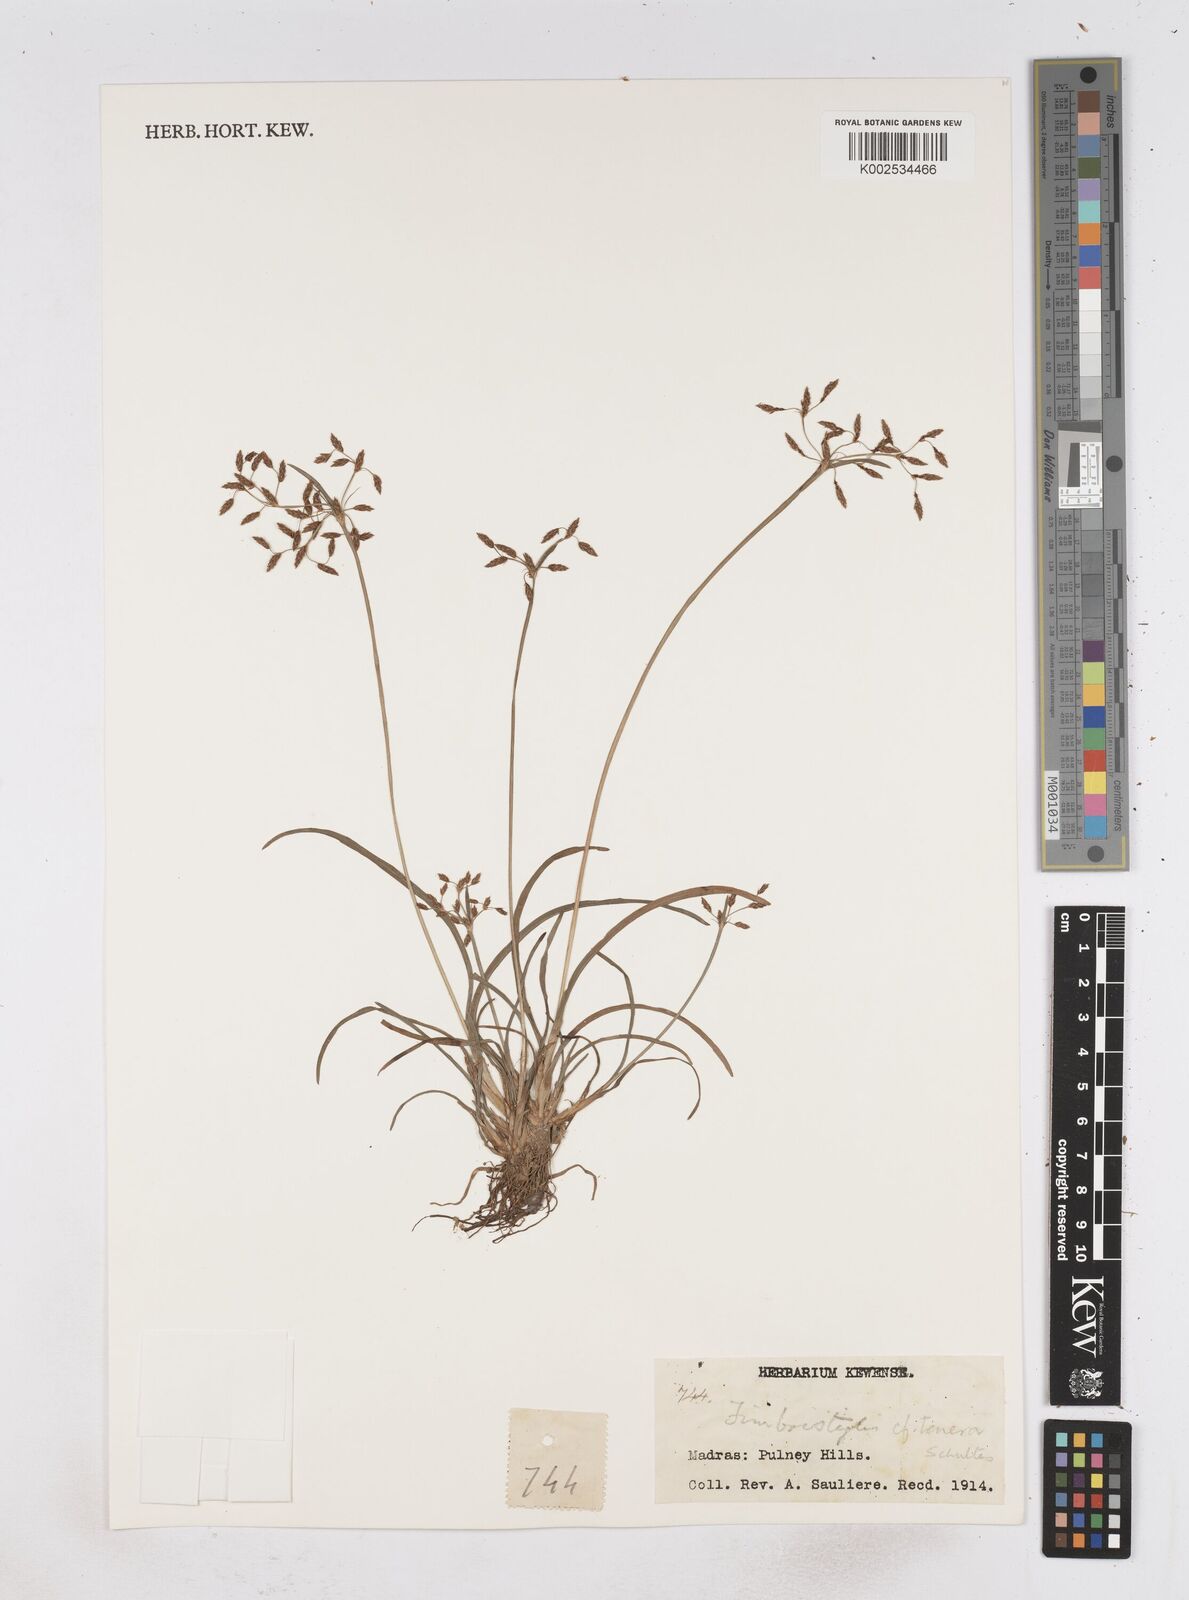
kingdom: Plantae
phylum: Tracheophyta
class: Liliopsida
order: Poales
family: Cyperaceae
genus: Fimbristylis
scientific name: Fimbristylis tenera
